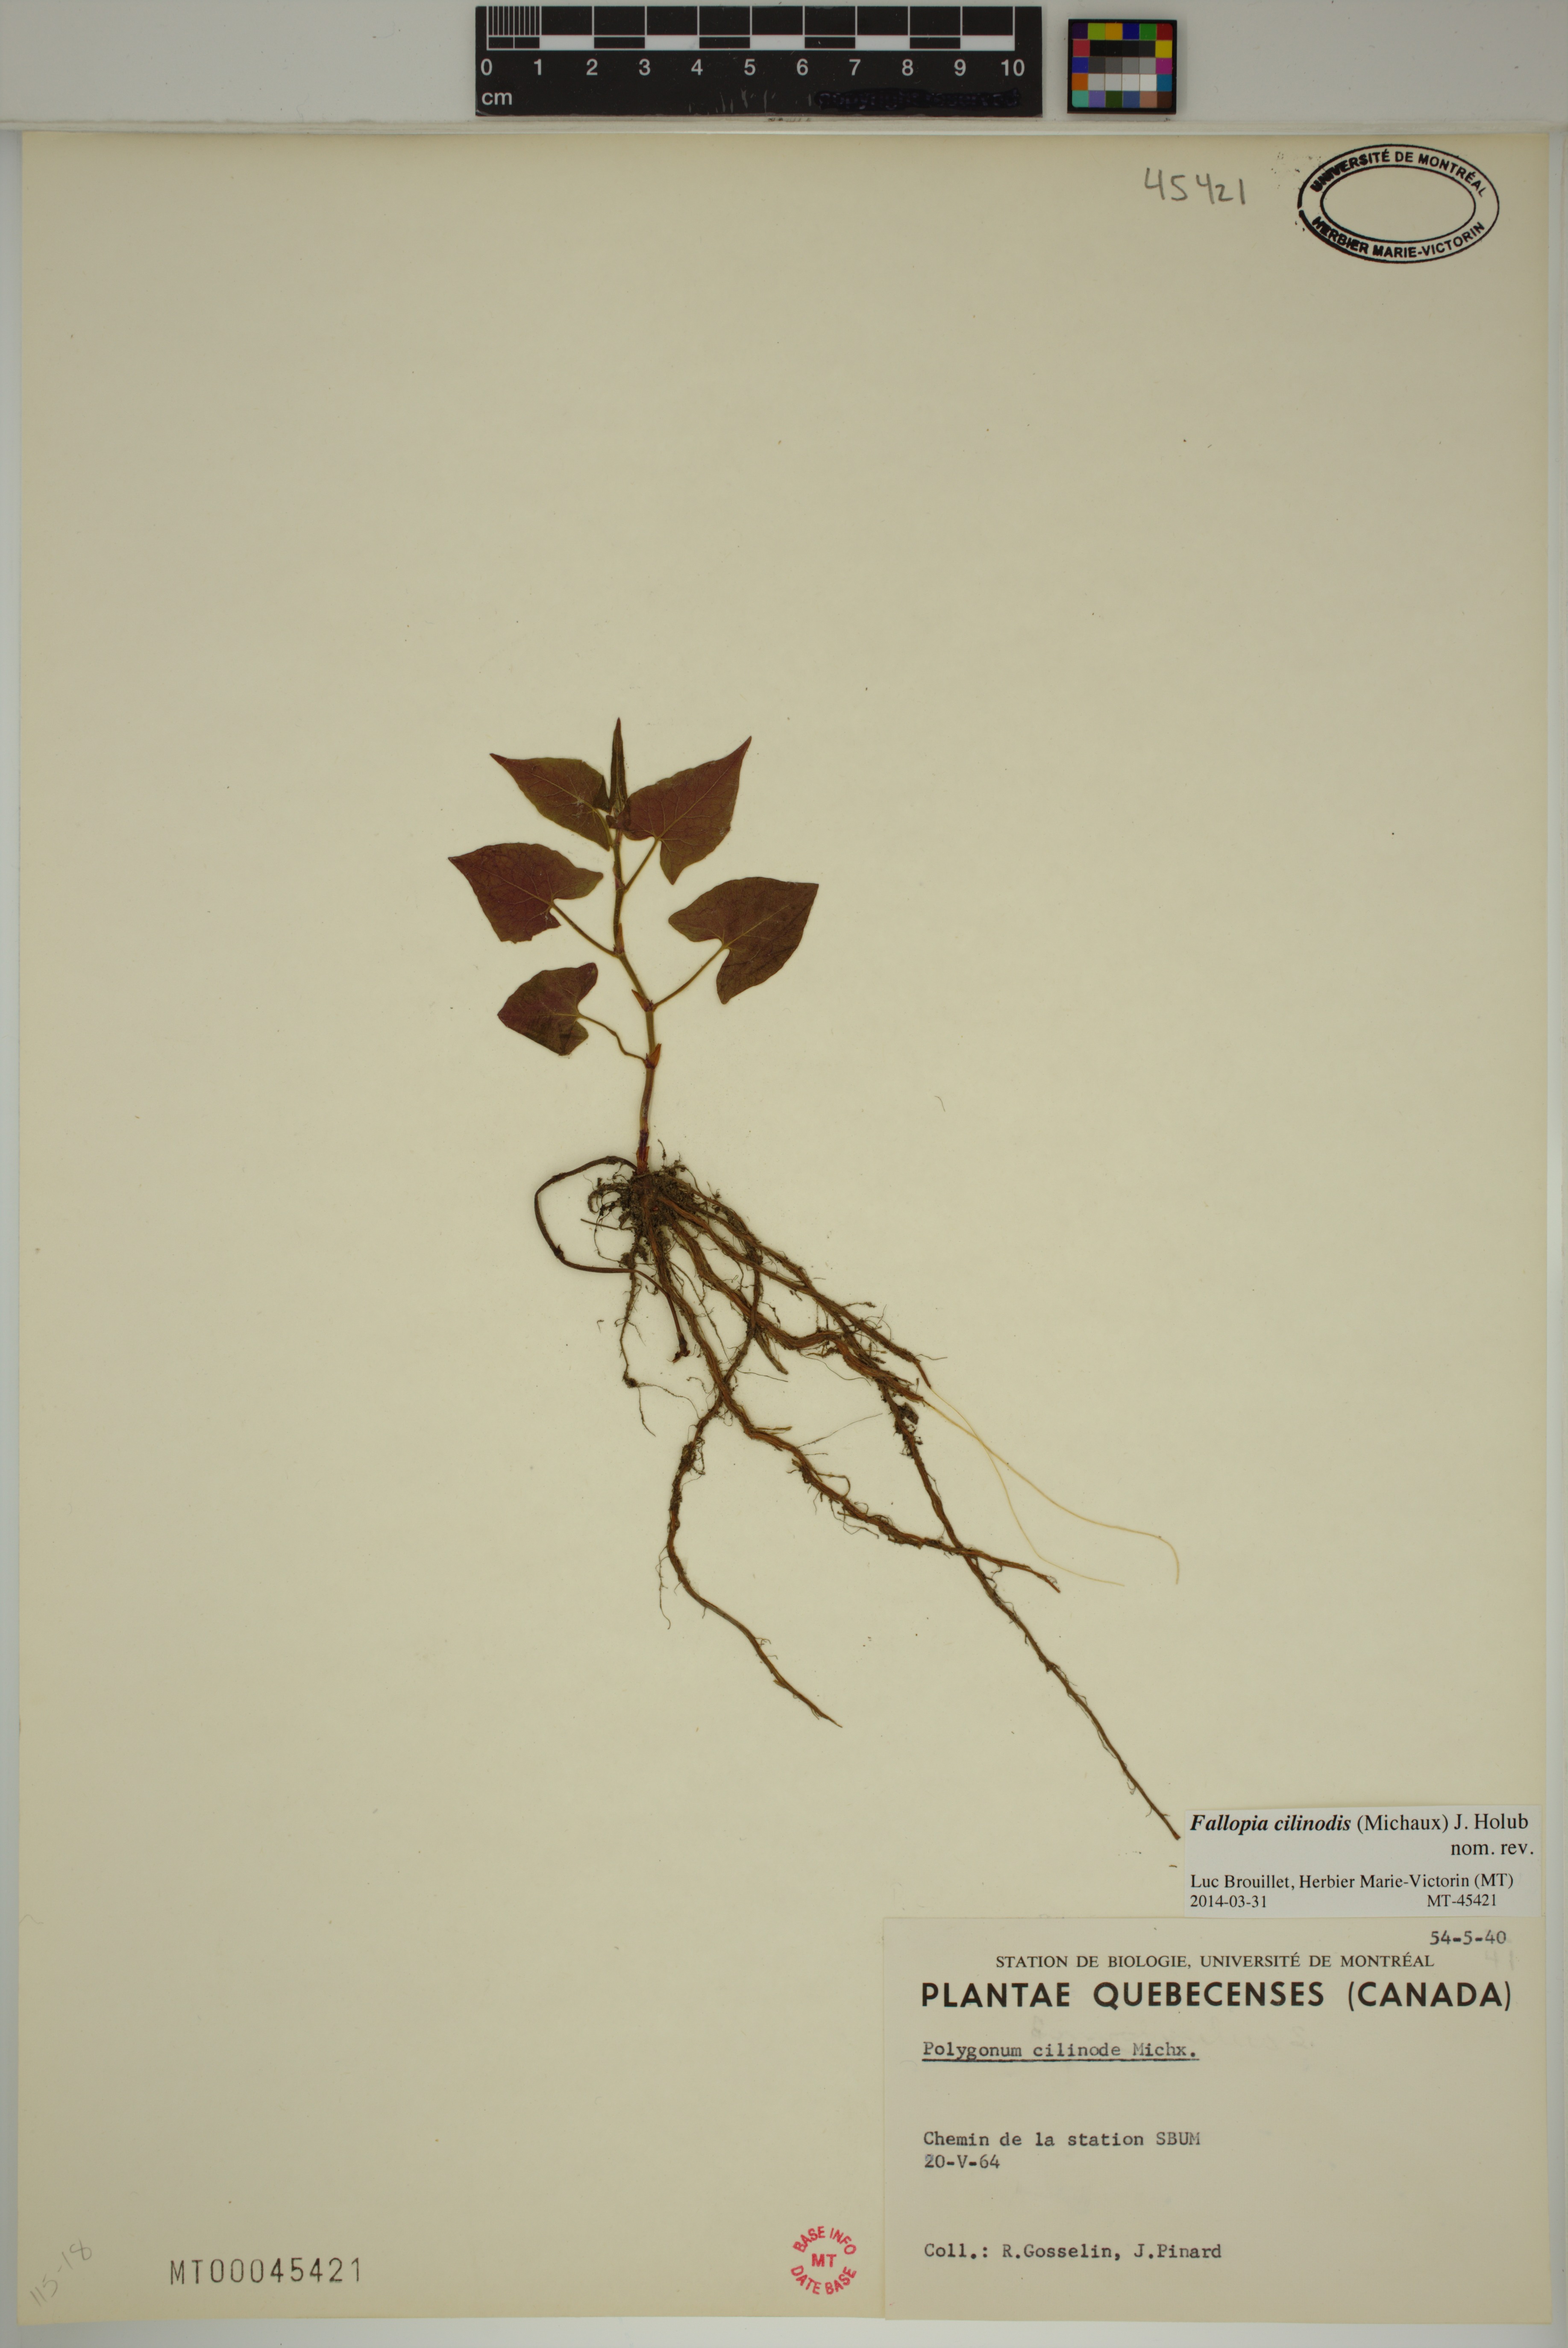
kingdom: Plantae
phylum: Tracheophyta
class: Magnoliopsida
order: Caryophyllales
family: Polygonaceae
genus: Parogonum
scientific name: Parogonum ciliinode
